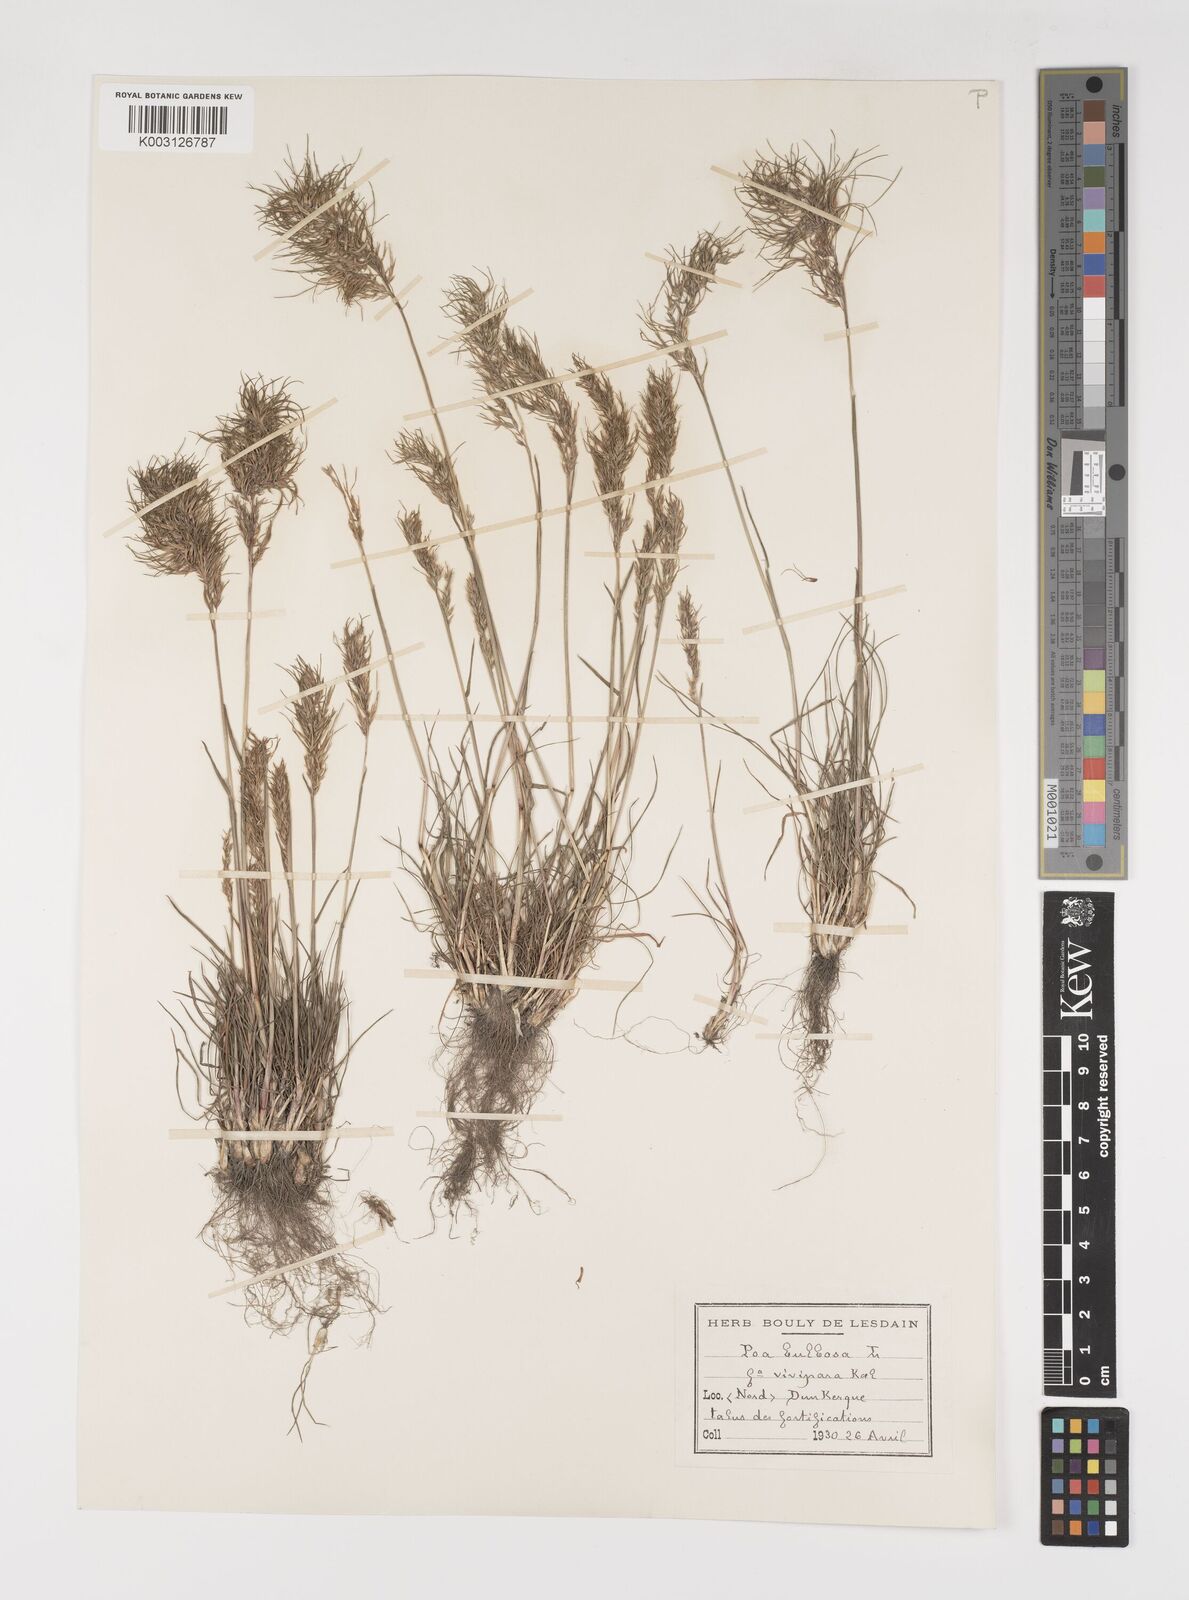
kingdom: Plantae
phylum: Tracheophyta
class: Liliopsida
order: Poales
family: Poaceae
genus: Poa
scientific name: Poa bulbosa
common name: Bulbous bluegrass
